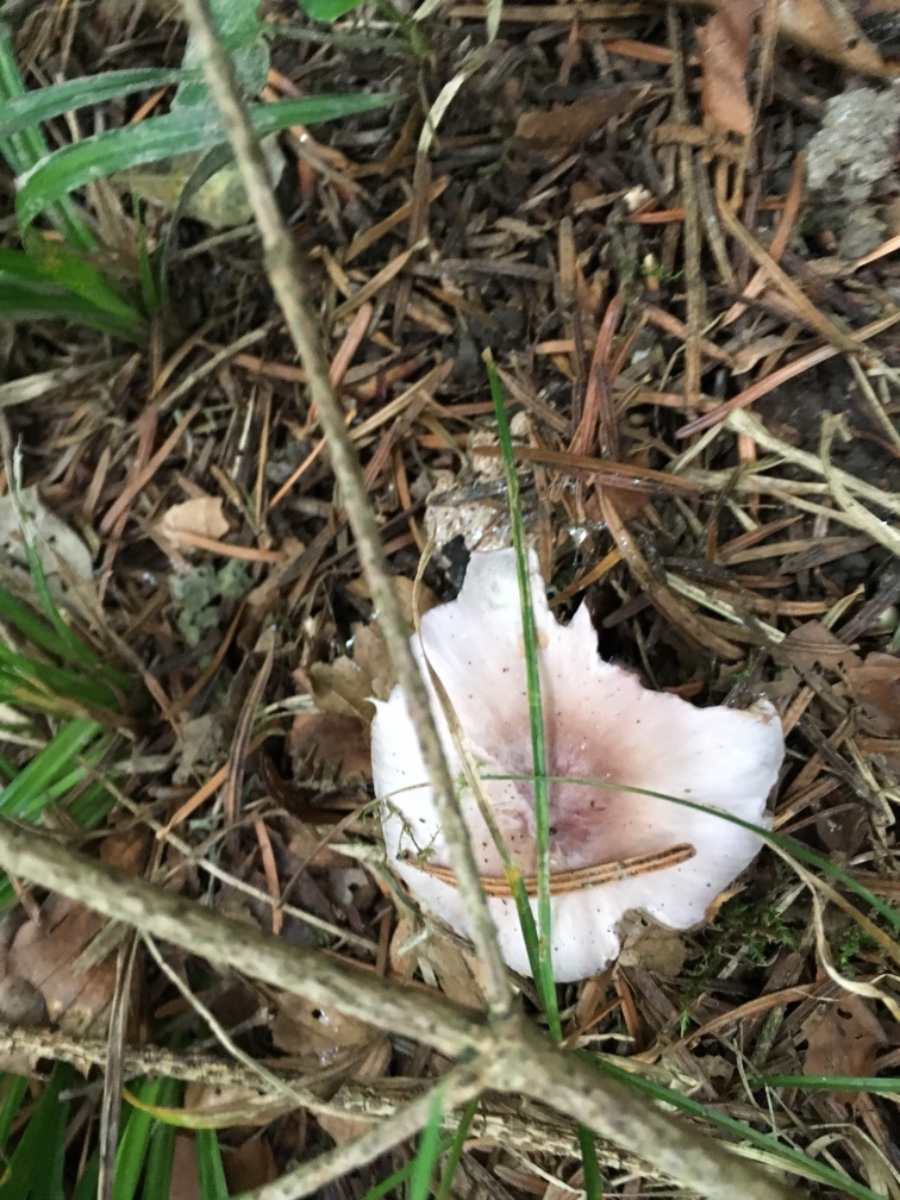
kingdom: Fungi
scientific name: Fungi
